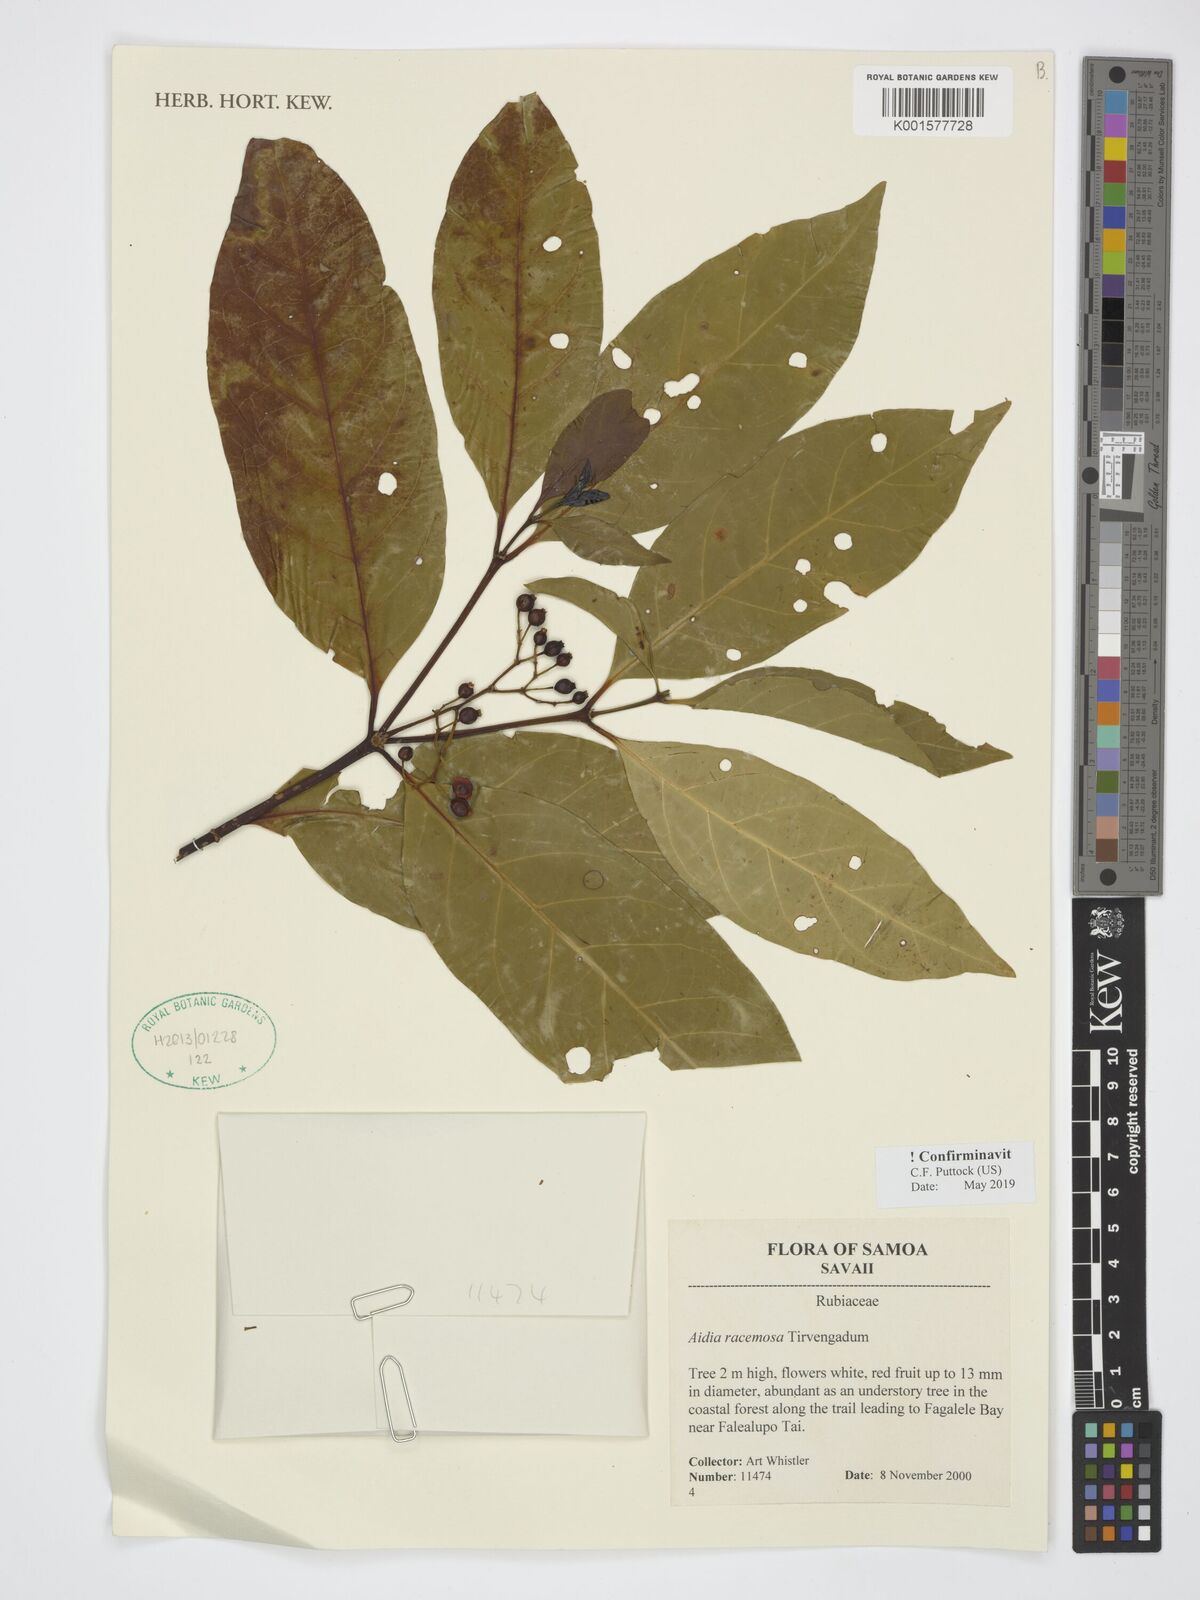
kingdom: Plantae
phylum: Tracheophyta
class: Magnoliopsida
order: Gentianales
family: Rubiaceae
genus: Aidia
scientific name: Aidia racemosa
